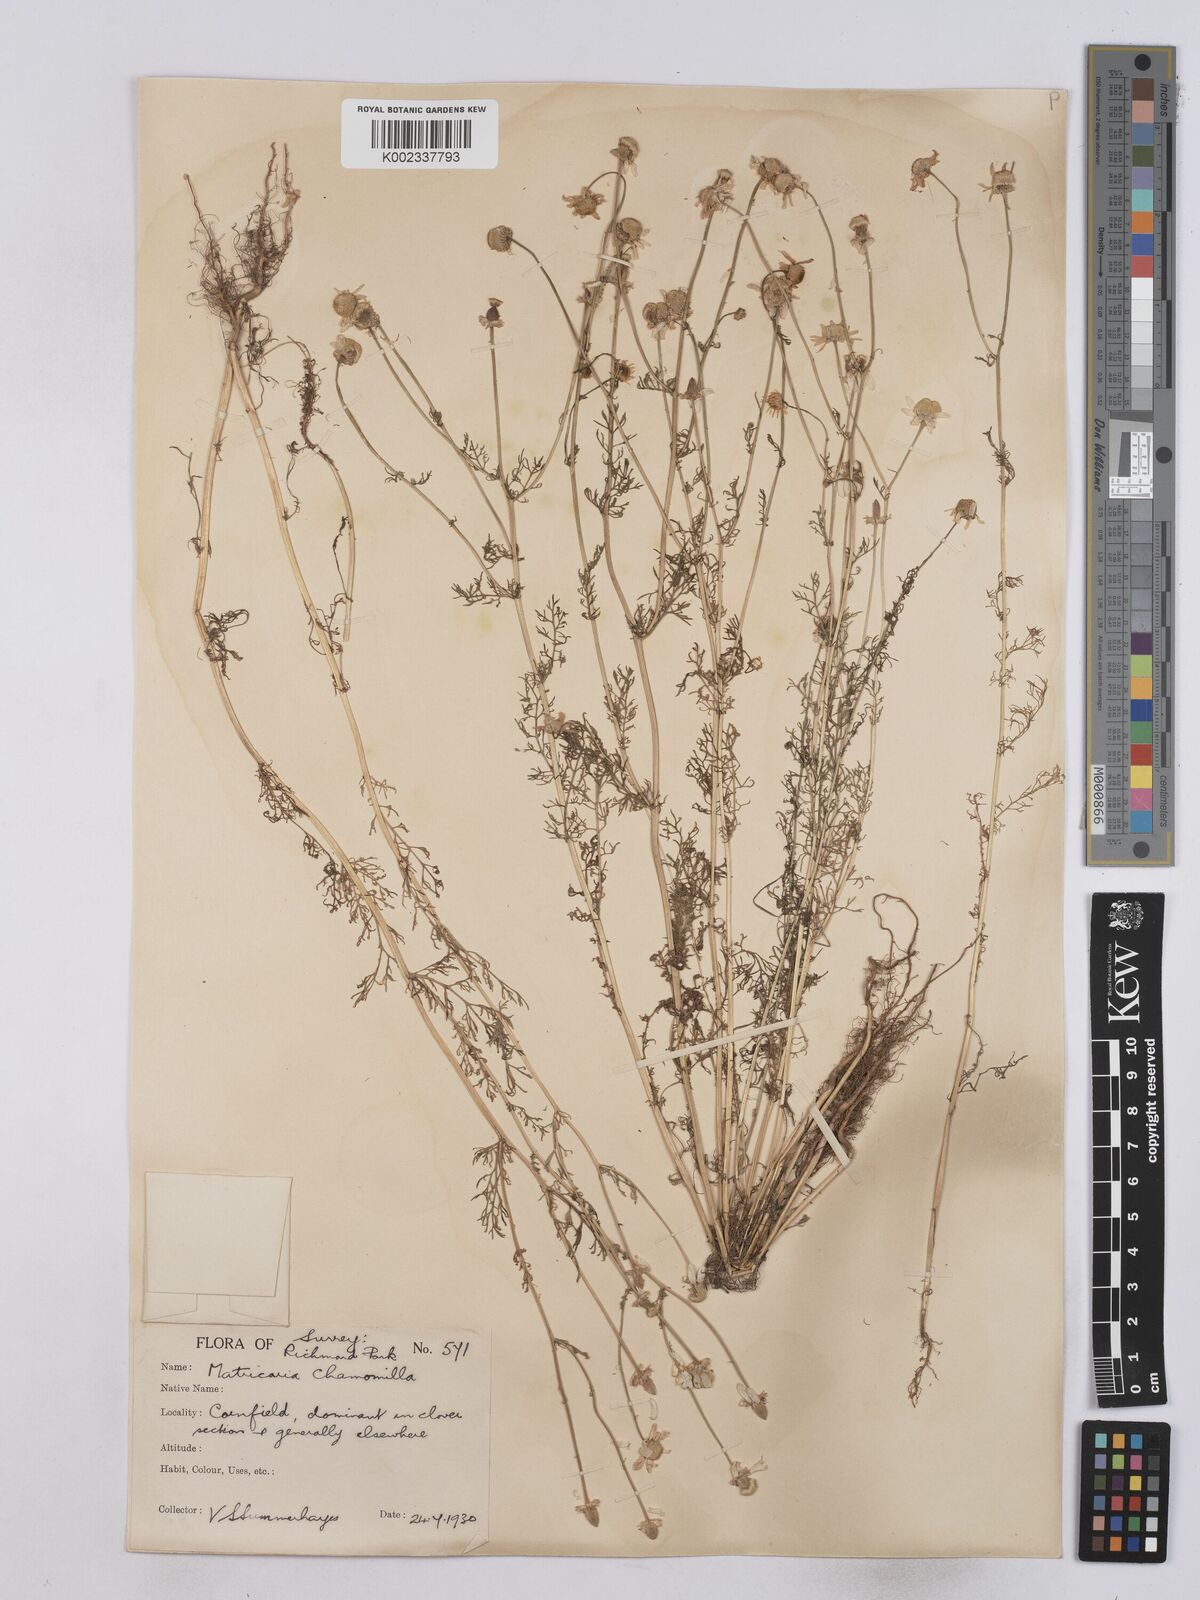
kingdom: Plantae
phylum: Tracheophyta
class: Magnoliopsida
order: Asterales
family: Asteraceae
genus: Matricaria
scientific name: Matricaria chamomilla
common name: Scented mayweed
